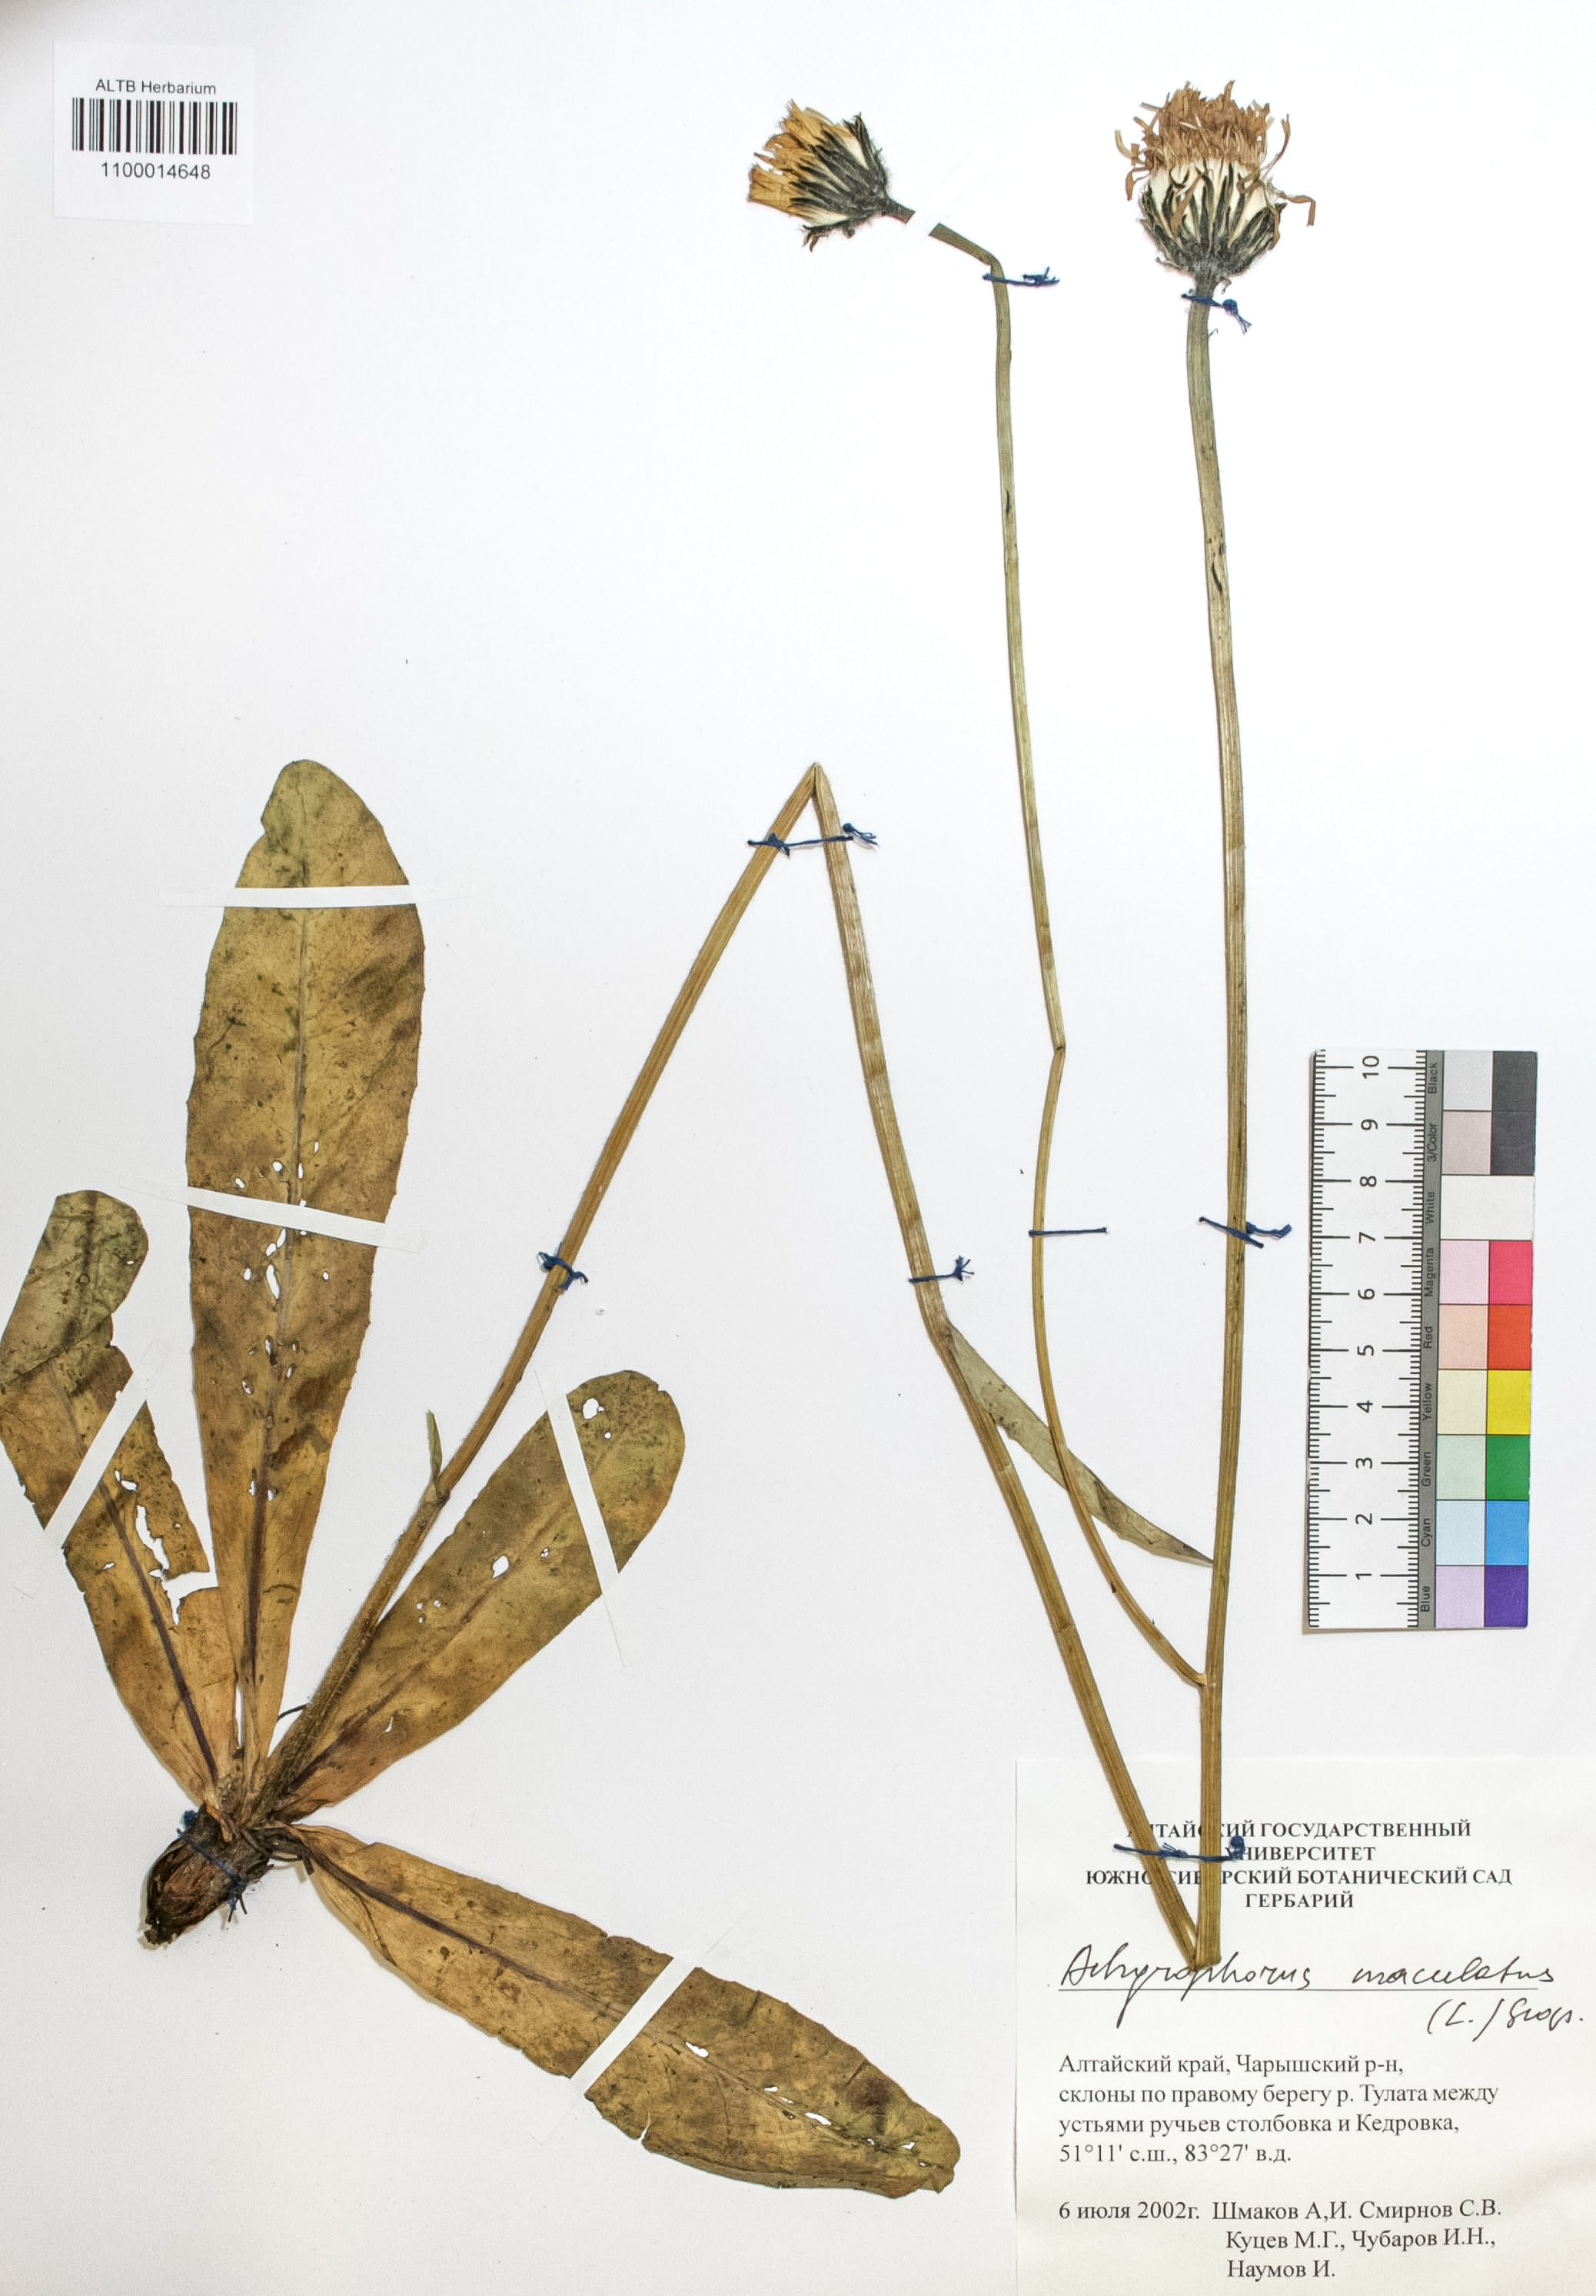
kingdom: Plantae
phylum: Tracheophyta
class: Magnoliopsida
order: Asterales
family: Asteraceae
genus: Trommsdorffia
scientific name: Trommsdorffia maculata
